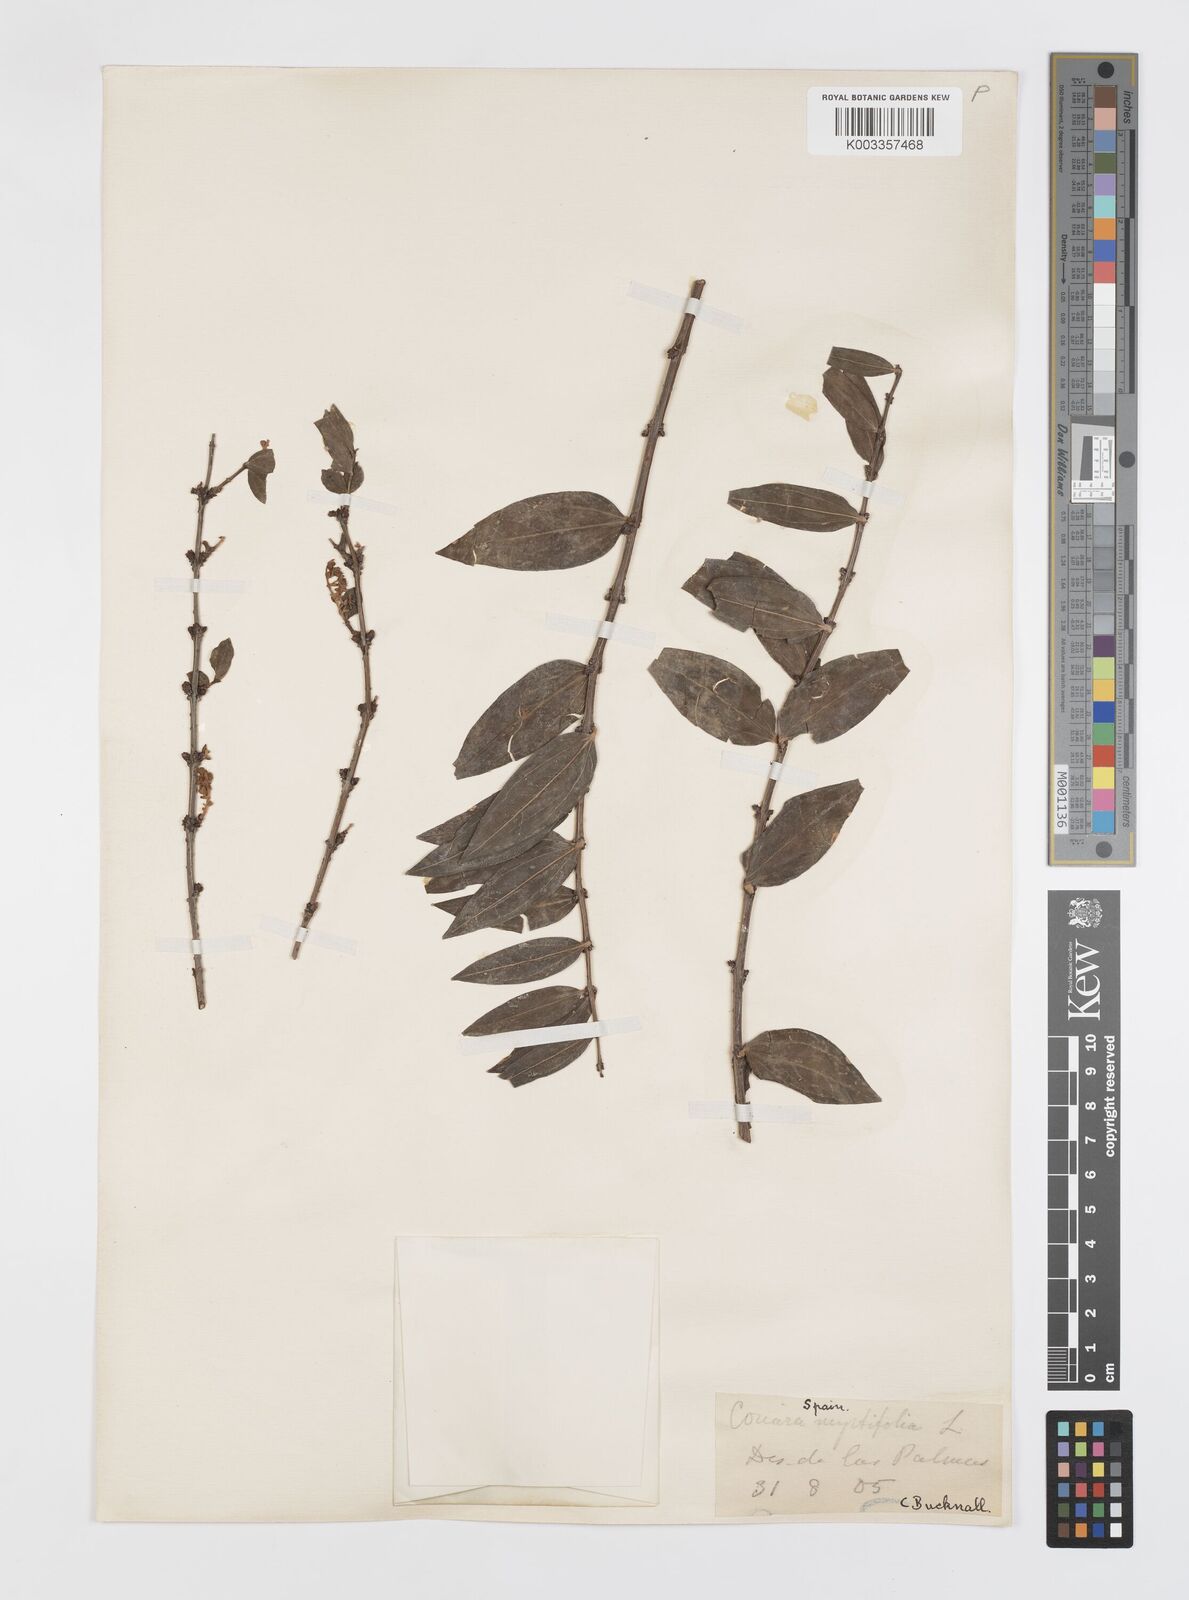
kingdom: Plantae
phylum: Tracheophyta
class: Magnoliopsida
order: Cucurbitales
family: Coriariaceae
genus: Coriaria
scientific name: Coriaria myrtifolia
